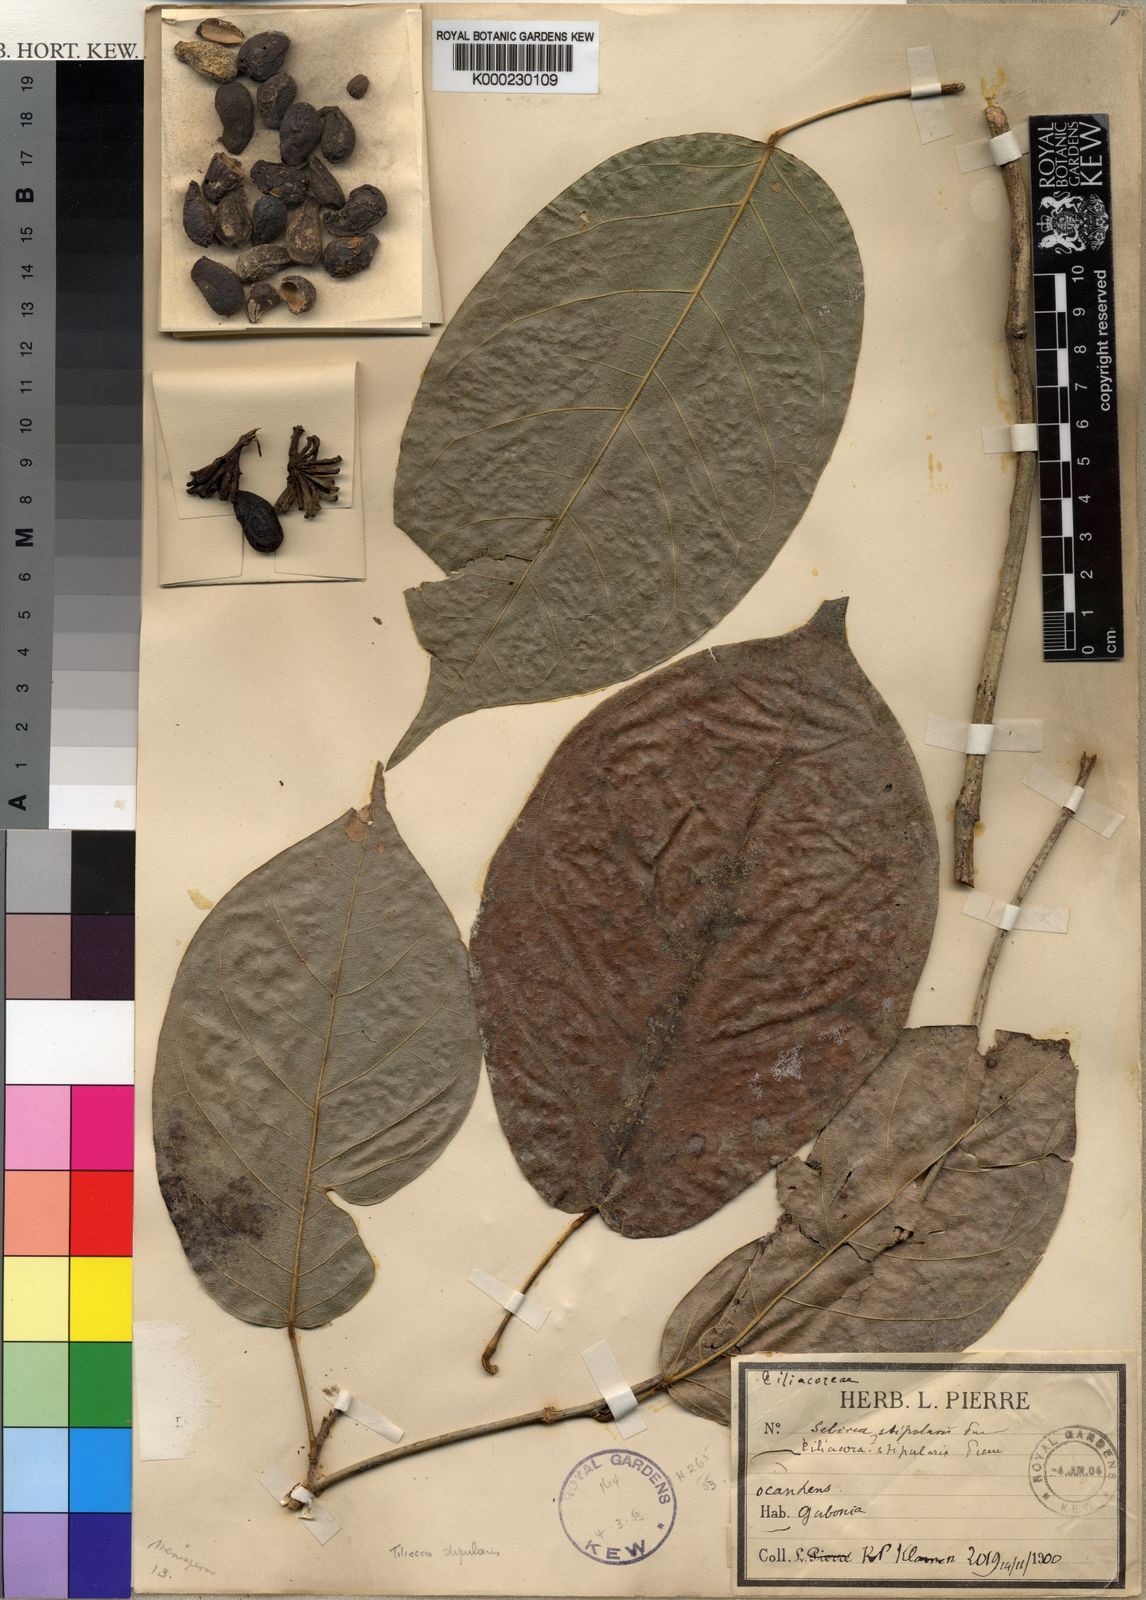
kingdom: Plantae
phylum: Tracheophyta
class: Magnoliopsida
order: Ranunculales
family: Menispermaceae
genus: Tiliacora
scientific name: Tiliacora triandra
